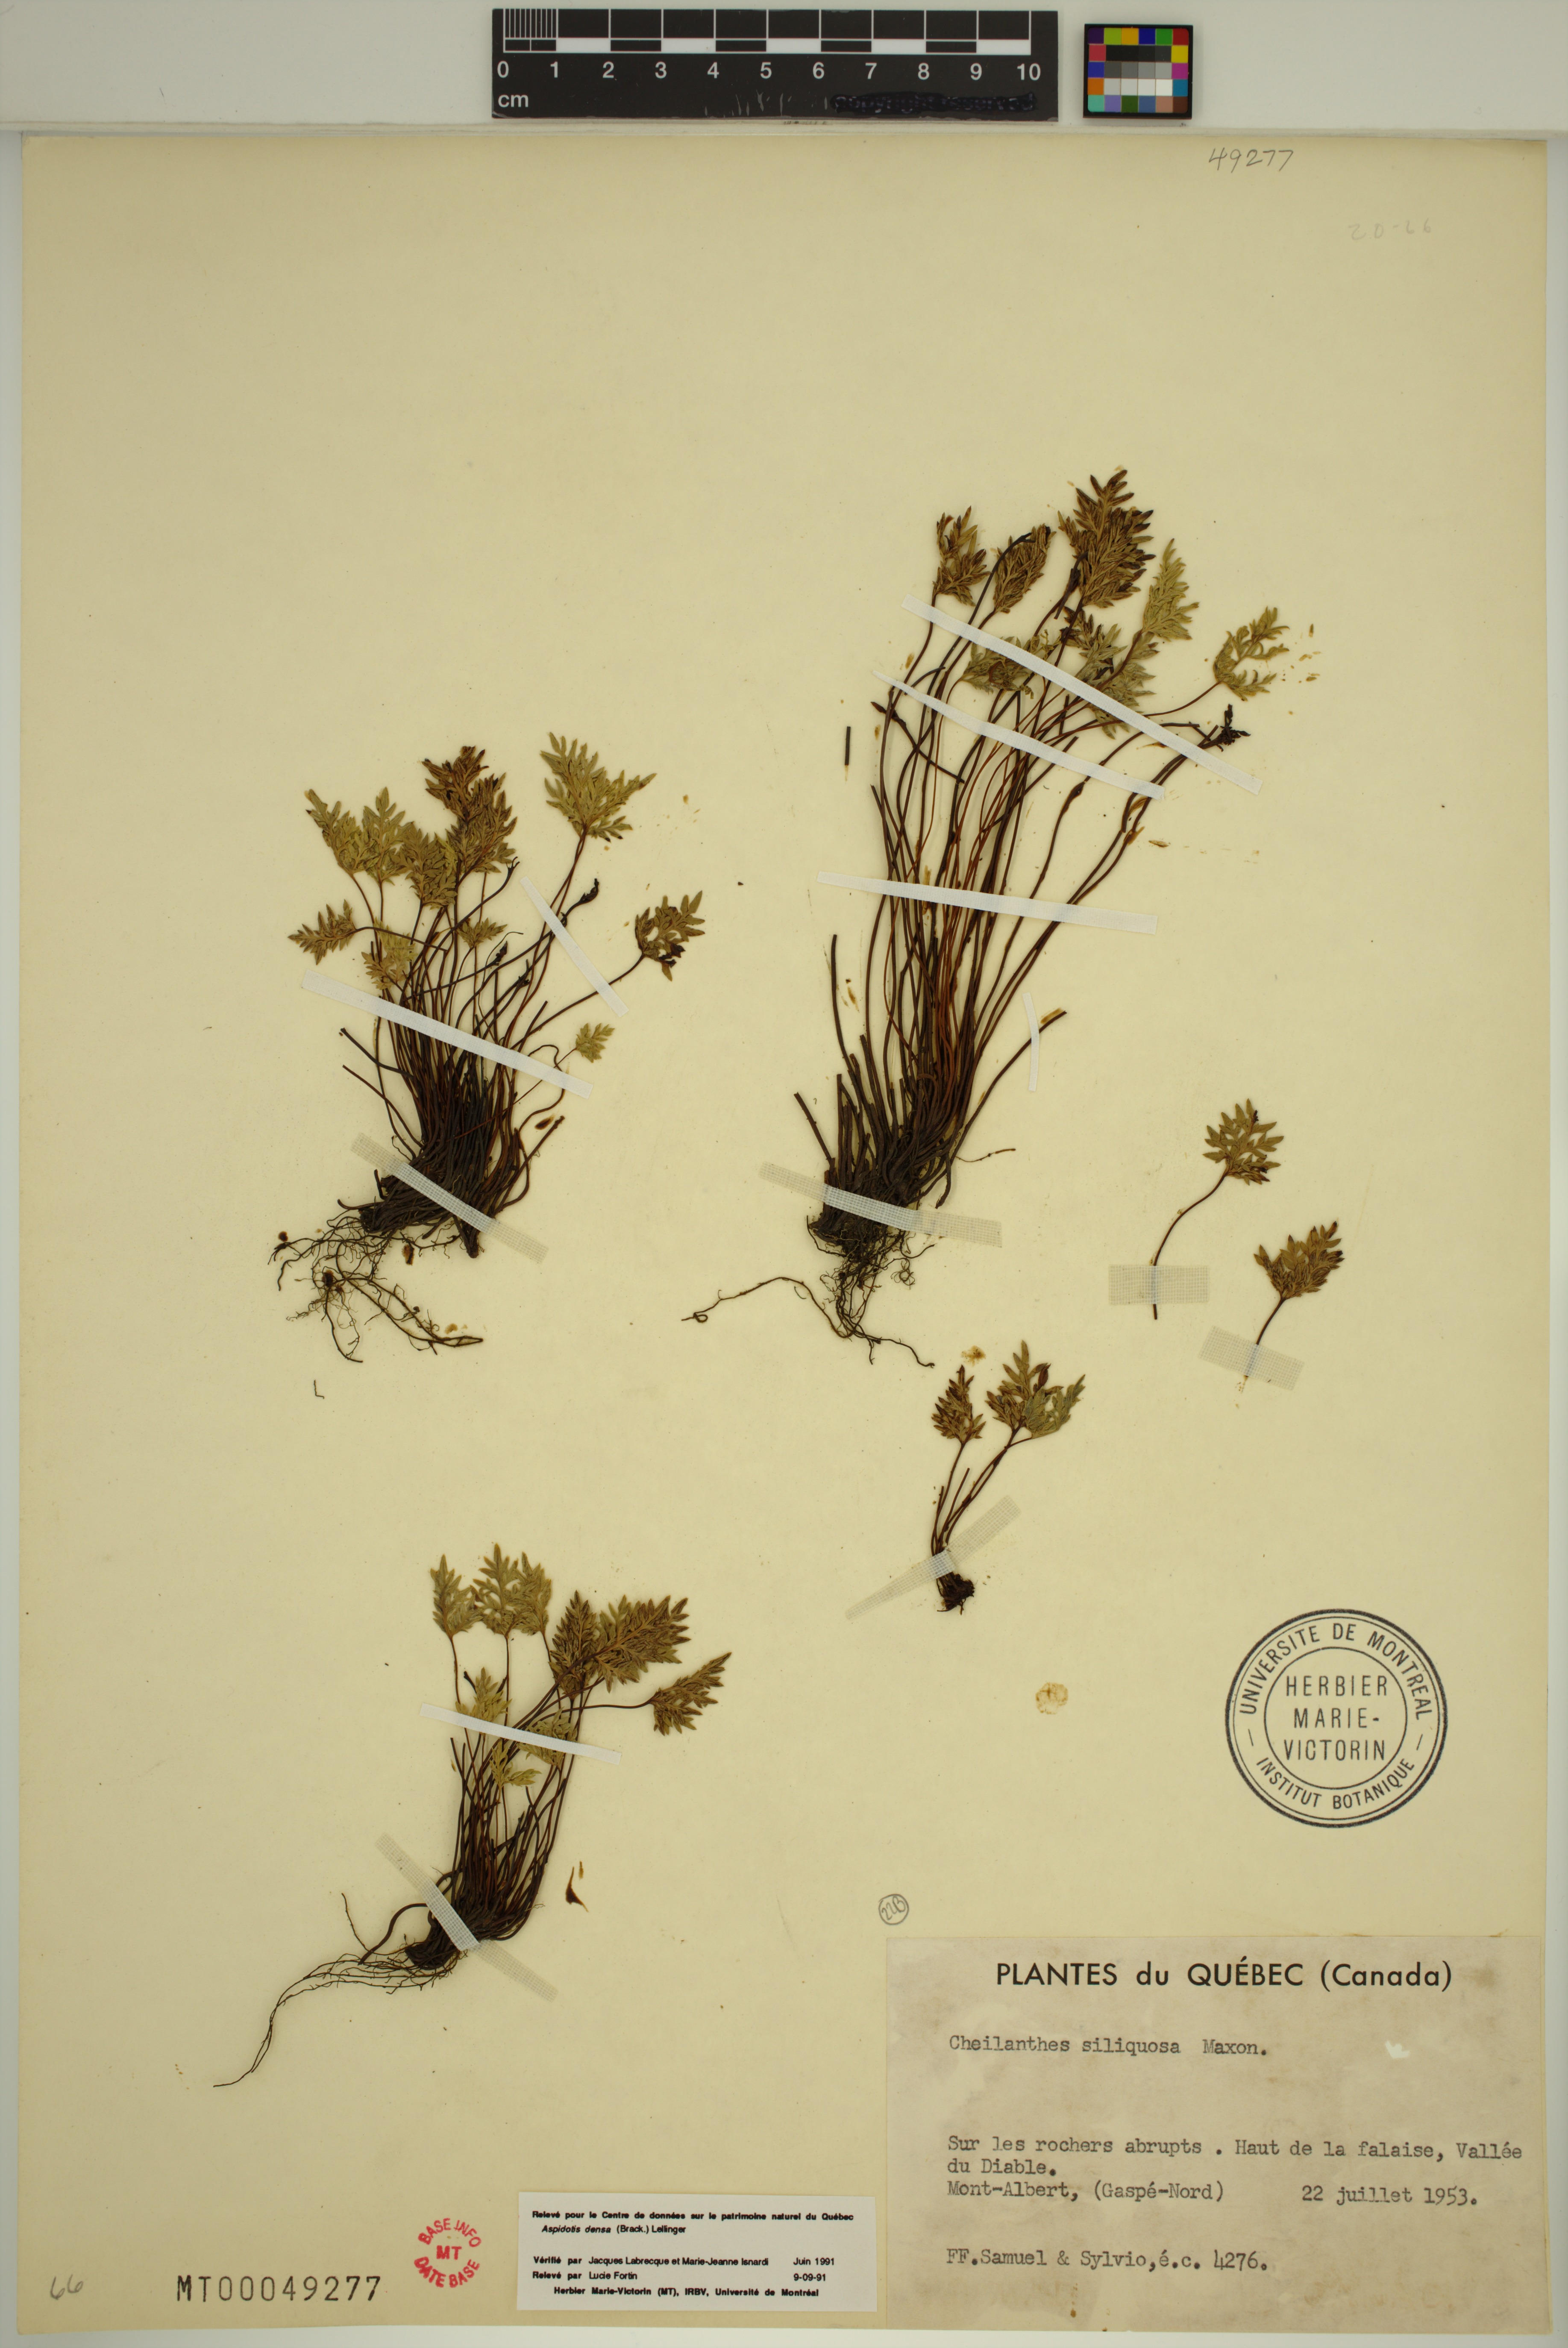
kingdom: Plantae
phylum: Tracheophyta
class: Polypodiopsida
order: Polypodiales
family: Pteridaceae
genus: Aspidotis
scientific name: Aspidotis densa
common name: Indian's dream
